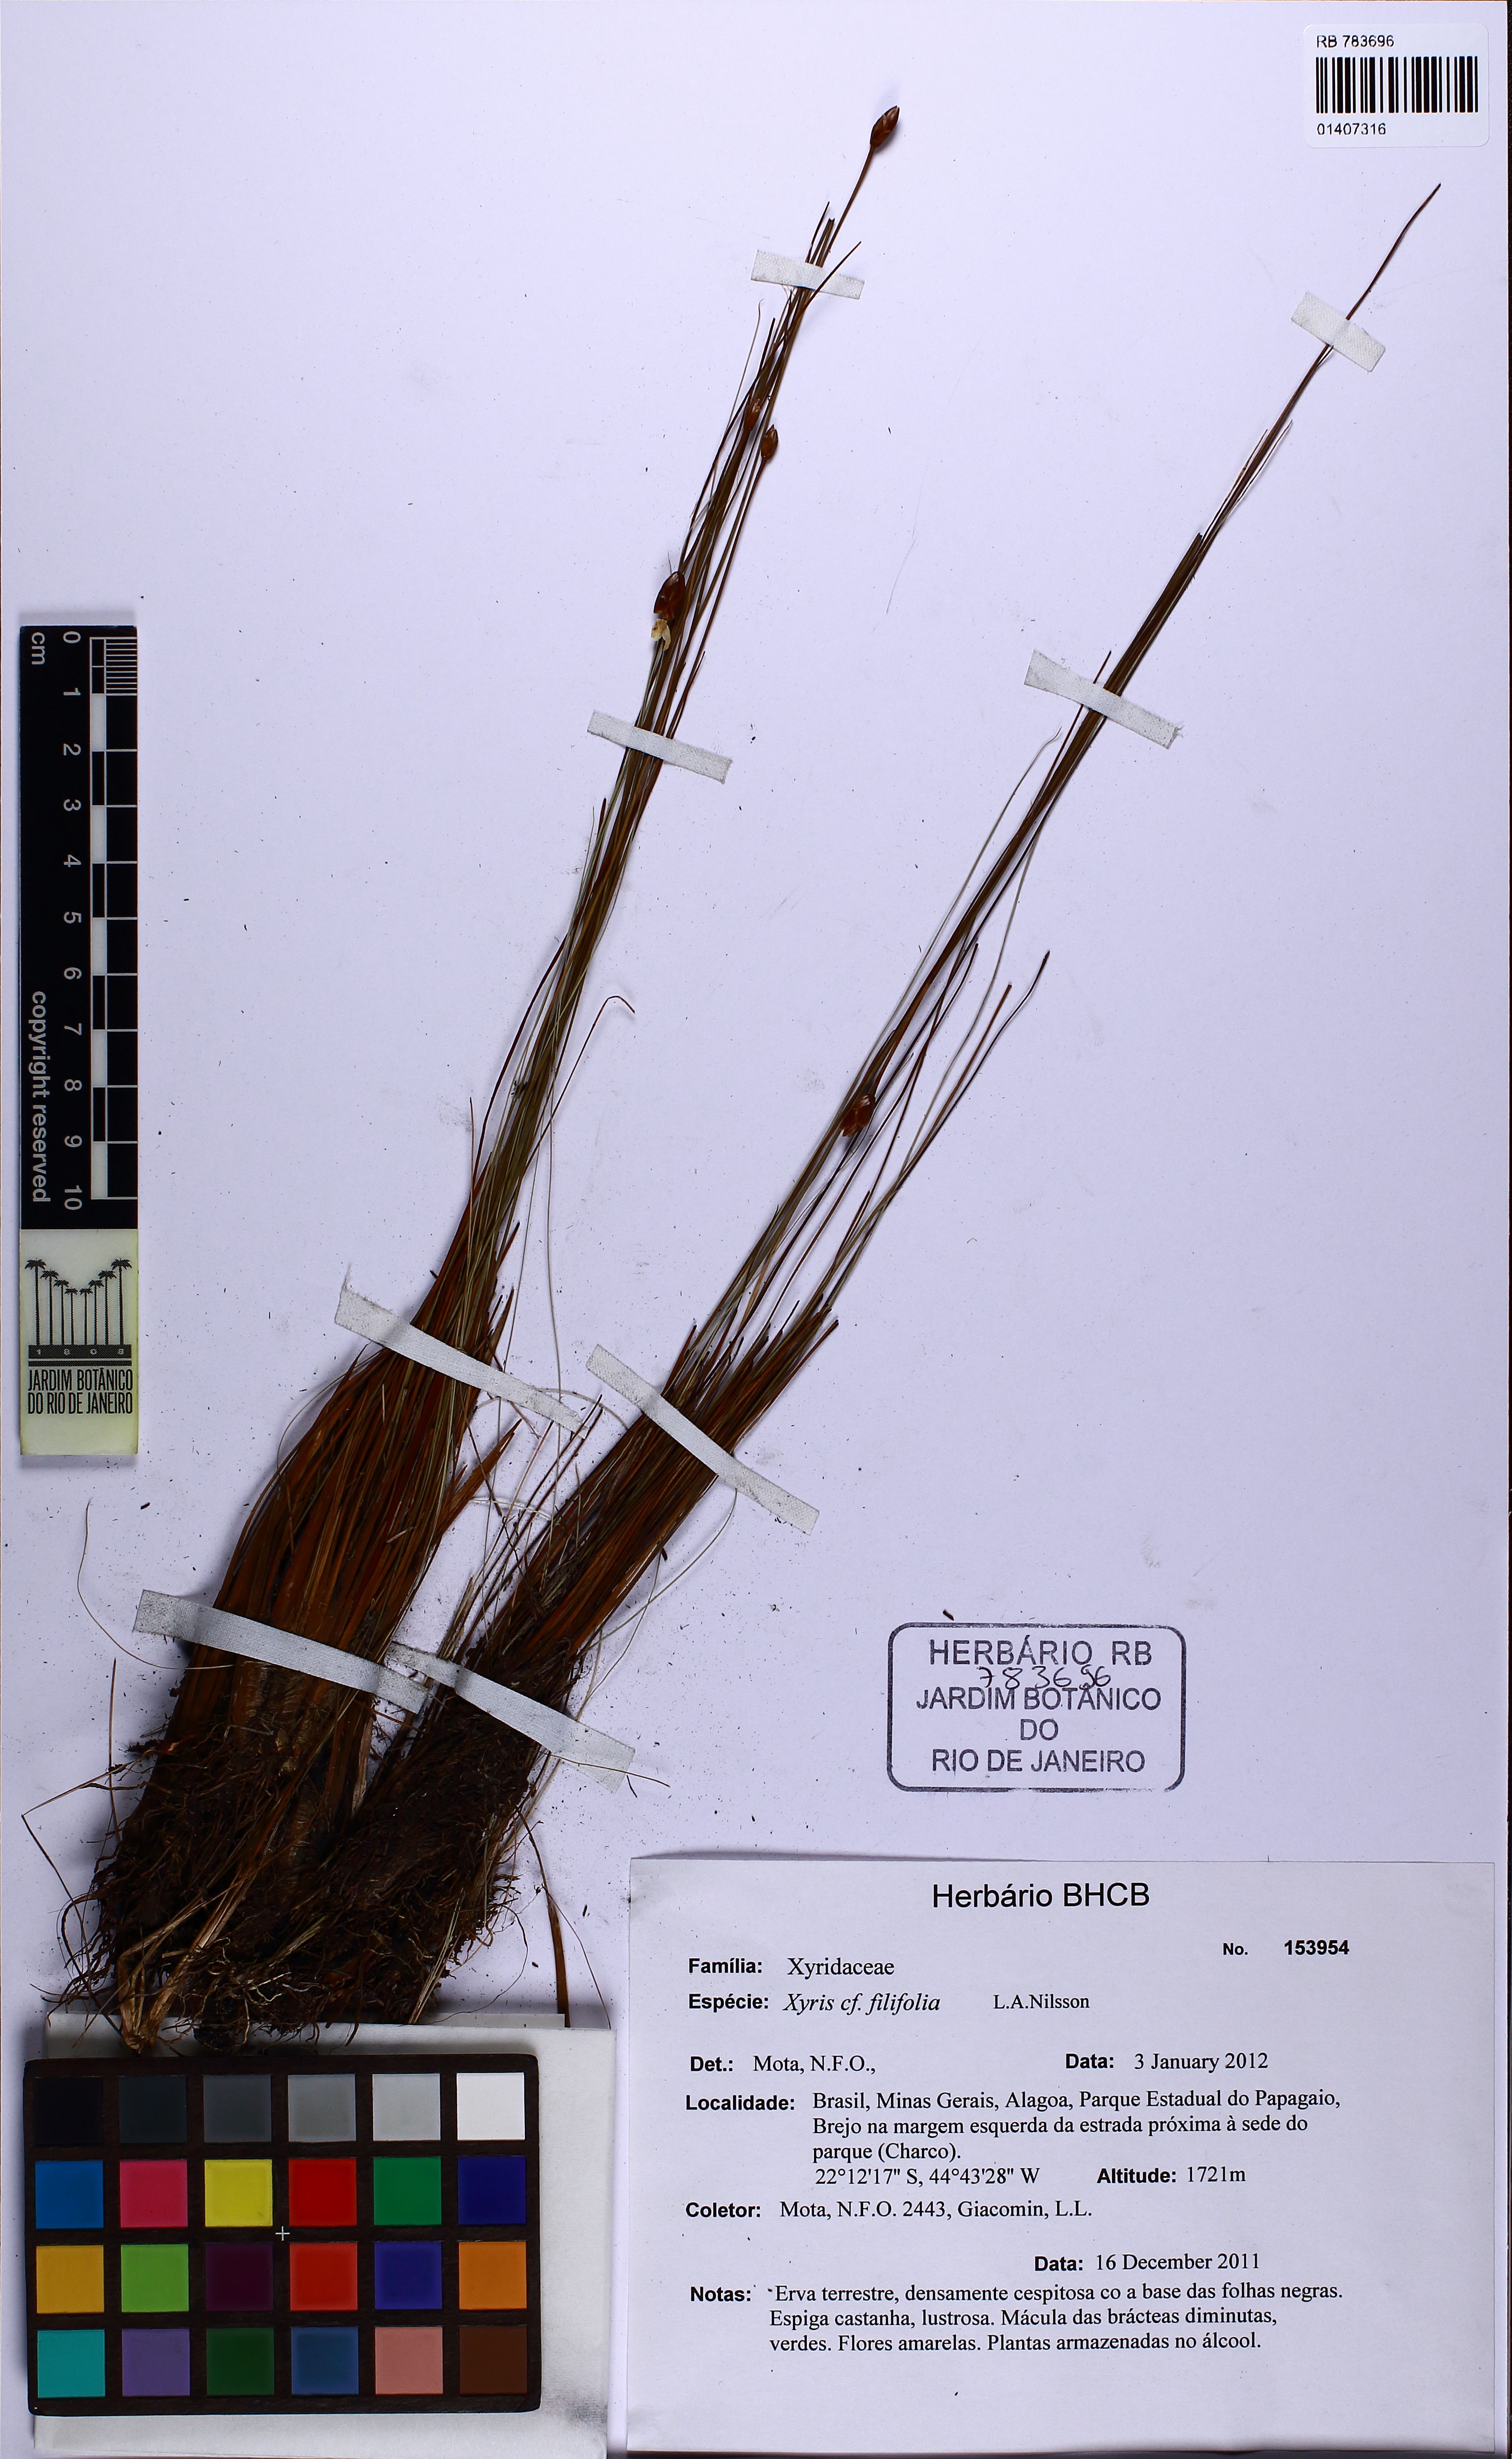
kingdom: Plantae
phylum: Tracheophyta
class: Liliopsida
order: Poales
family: Xyridaceae
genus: Xyris
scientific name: Xyris filifolia
